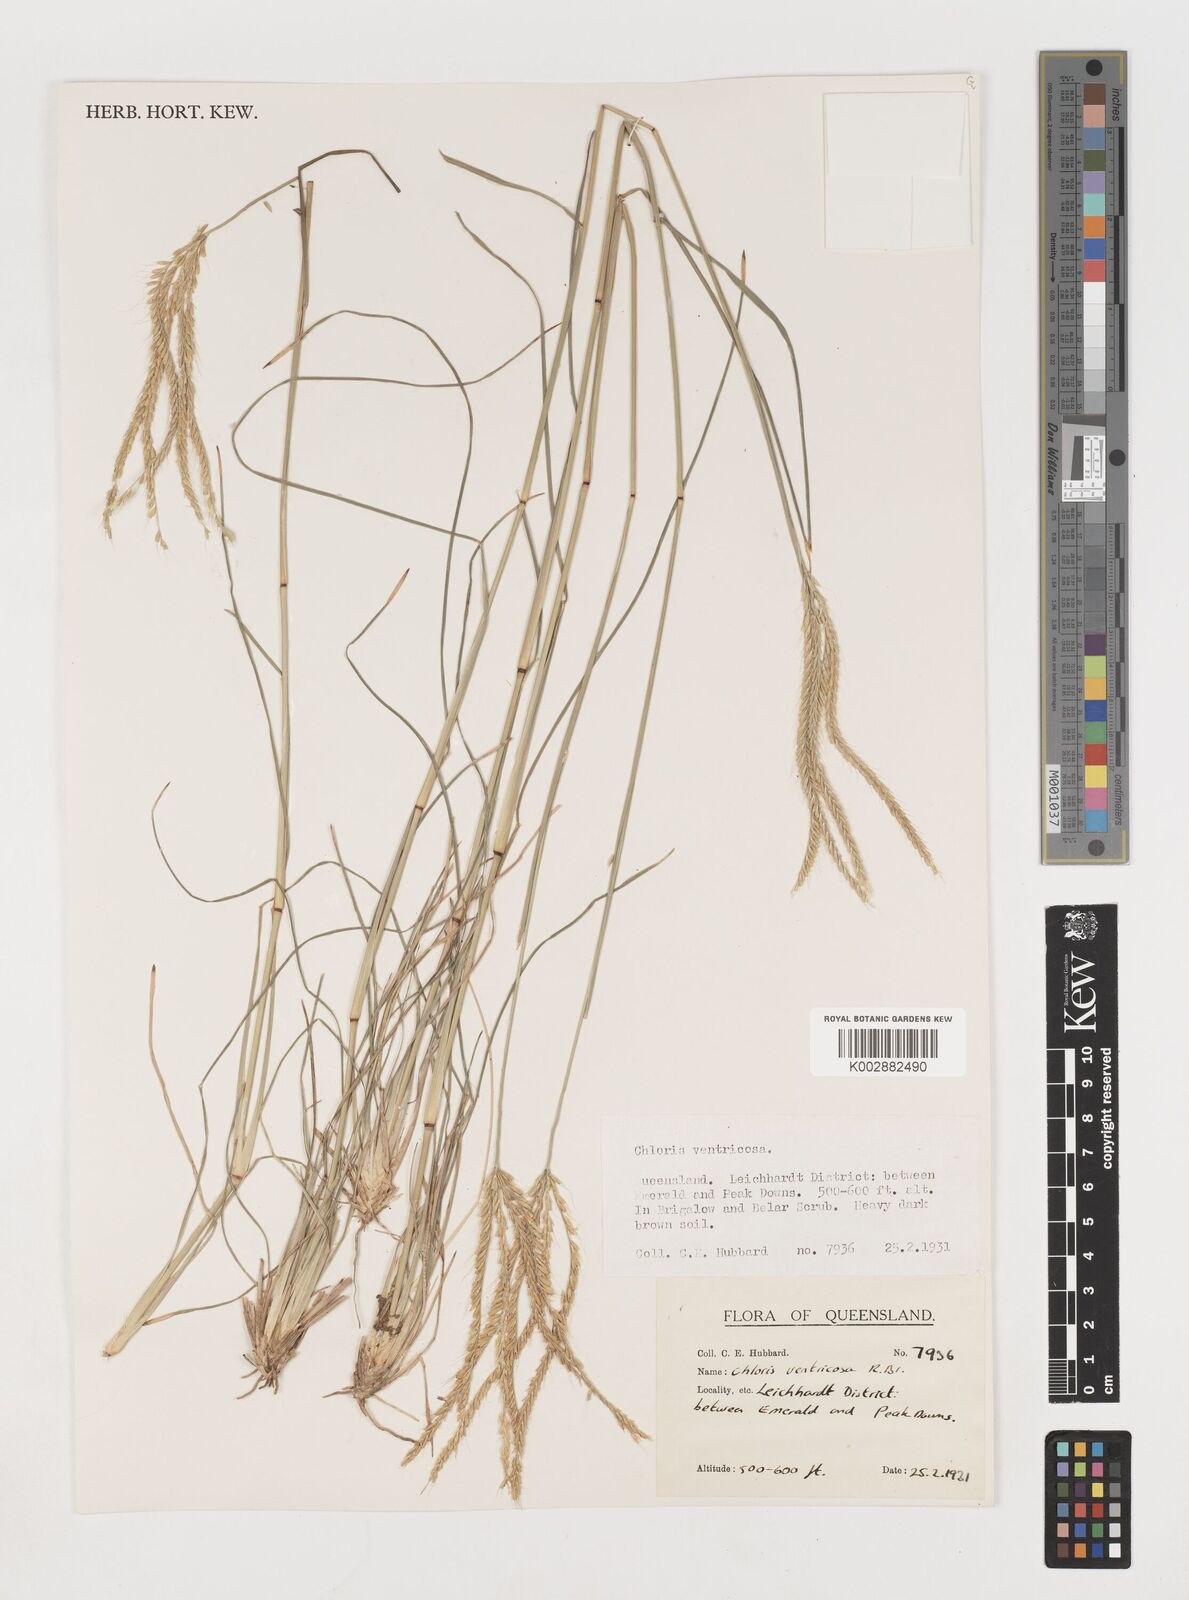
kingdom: Plantae
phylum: Tracheophyta
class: Liliopsida
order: Poales
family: Poaceae
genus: Chloris
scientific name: Chloris ventricosa
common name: Australian windmill grass
